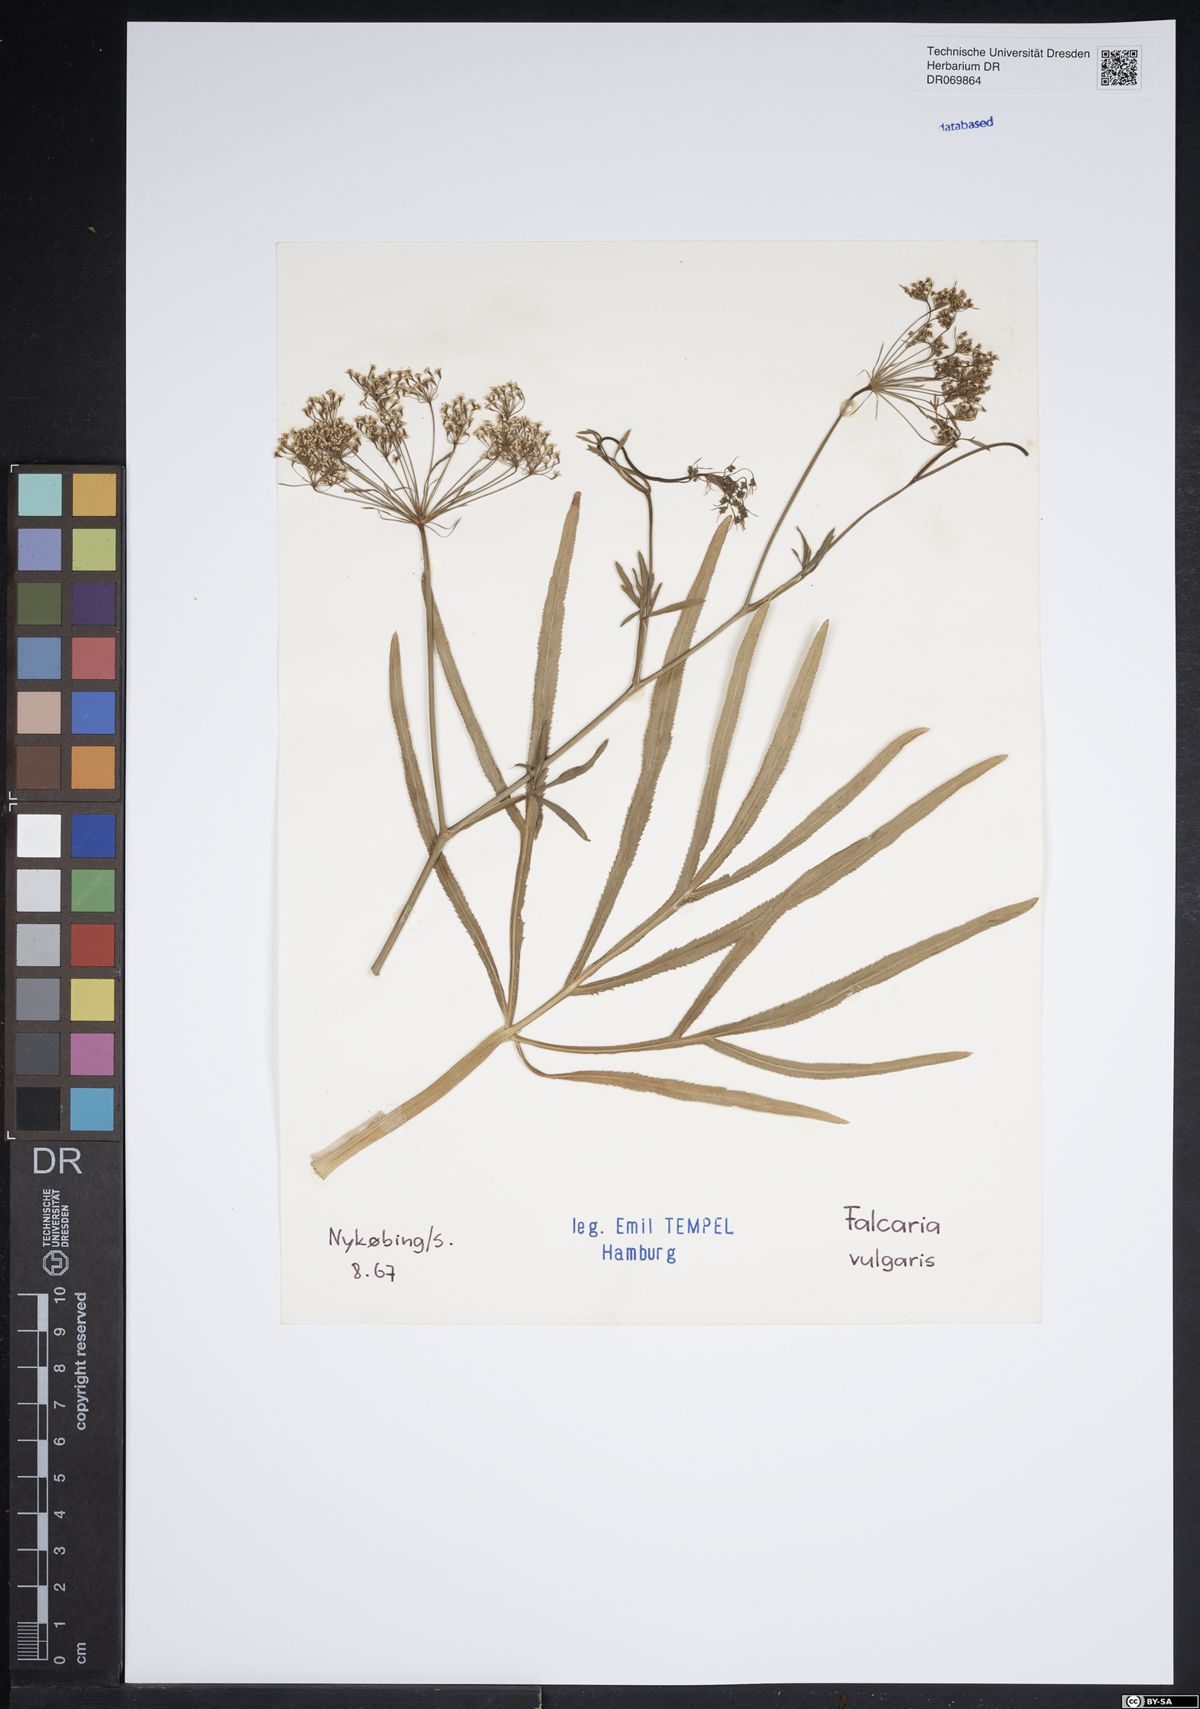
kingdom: Plantae
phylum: Tracheophyta
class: Magnoliopsida
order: Apiales
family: Apiaceae
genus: Falcaria
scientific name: Falcaria vulgaris
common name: Longleaf
